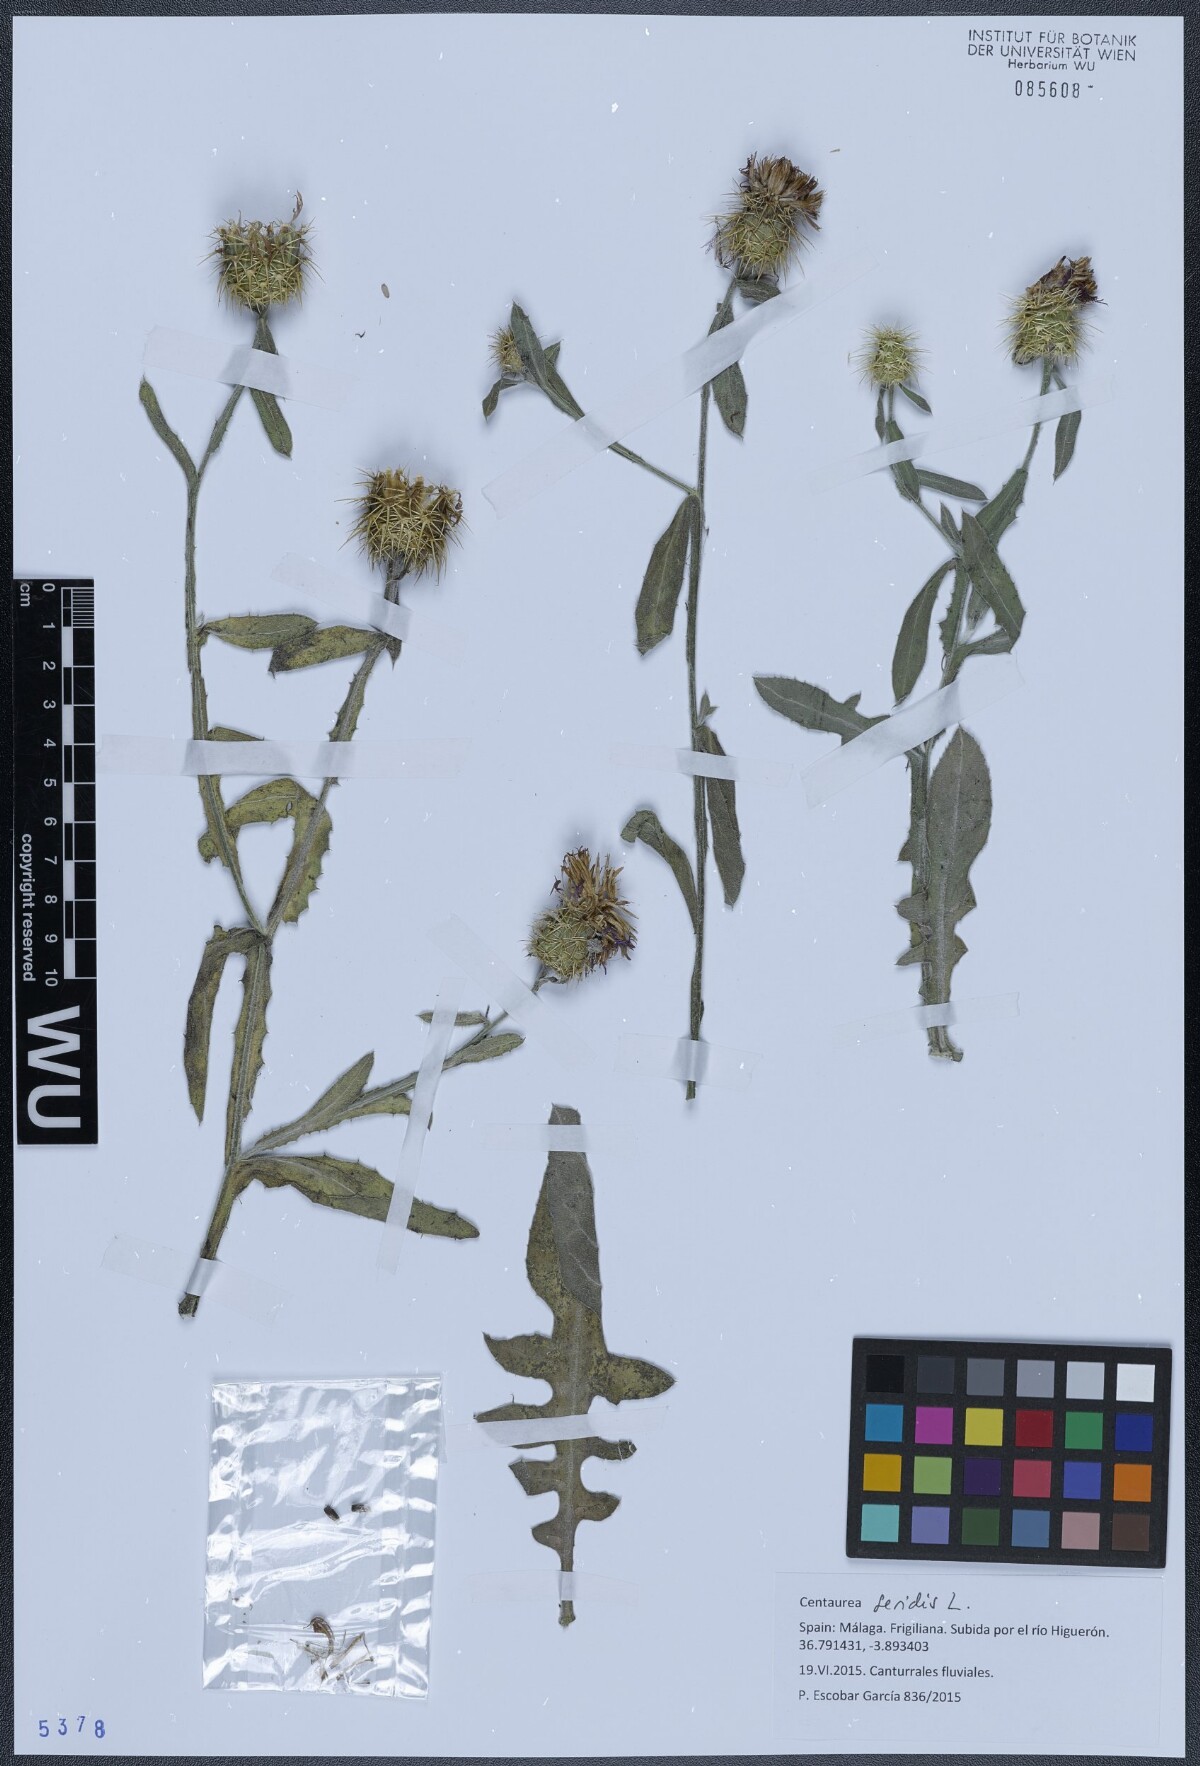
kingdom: Plantae
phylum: Tracheophyta
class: Magnoliopsida
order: Asterales
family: Asteraceae
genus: Centaurea
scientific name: Centaurea seridis
